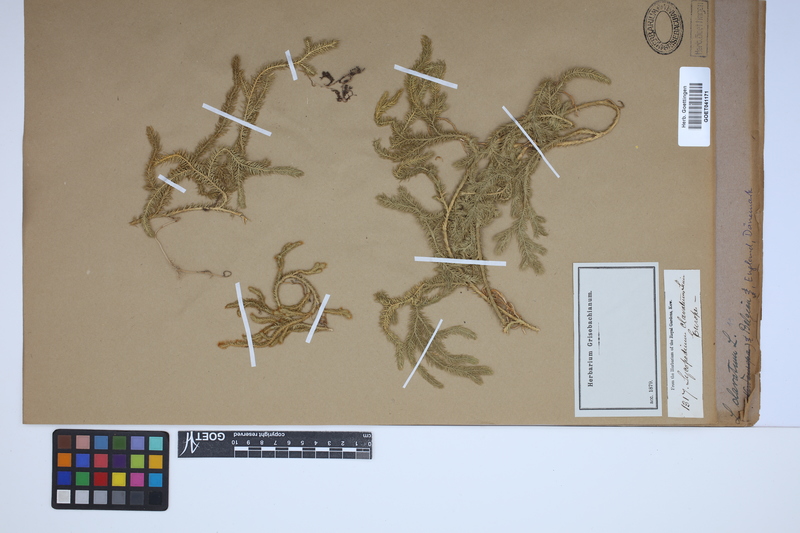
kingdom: Plantae
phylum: Tracheophyta
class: Lycopodiopsida
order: Lycopodiales
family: Lycopodiaceae
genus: Lycopodium
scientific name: Lycopodium clavatum
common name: Stag's-horn clubmoss
